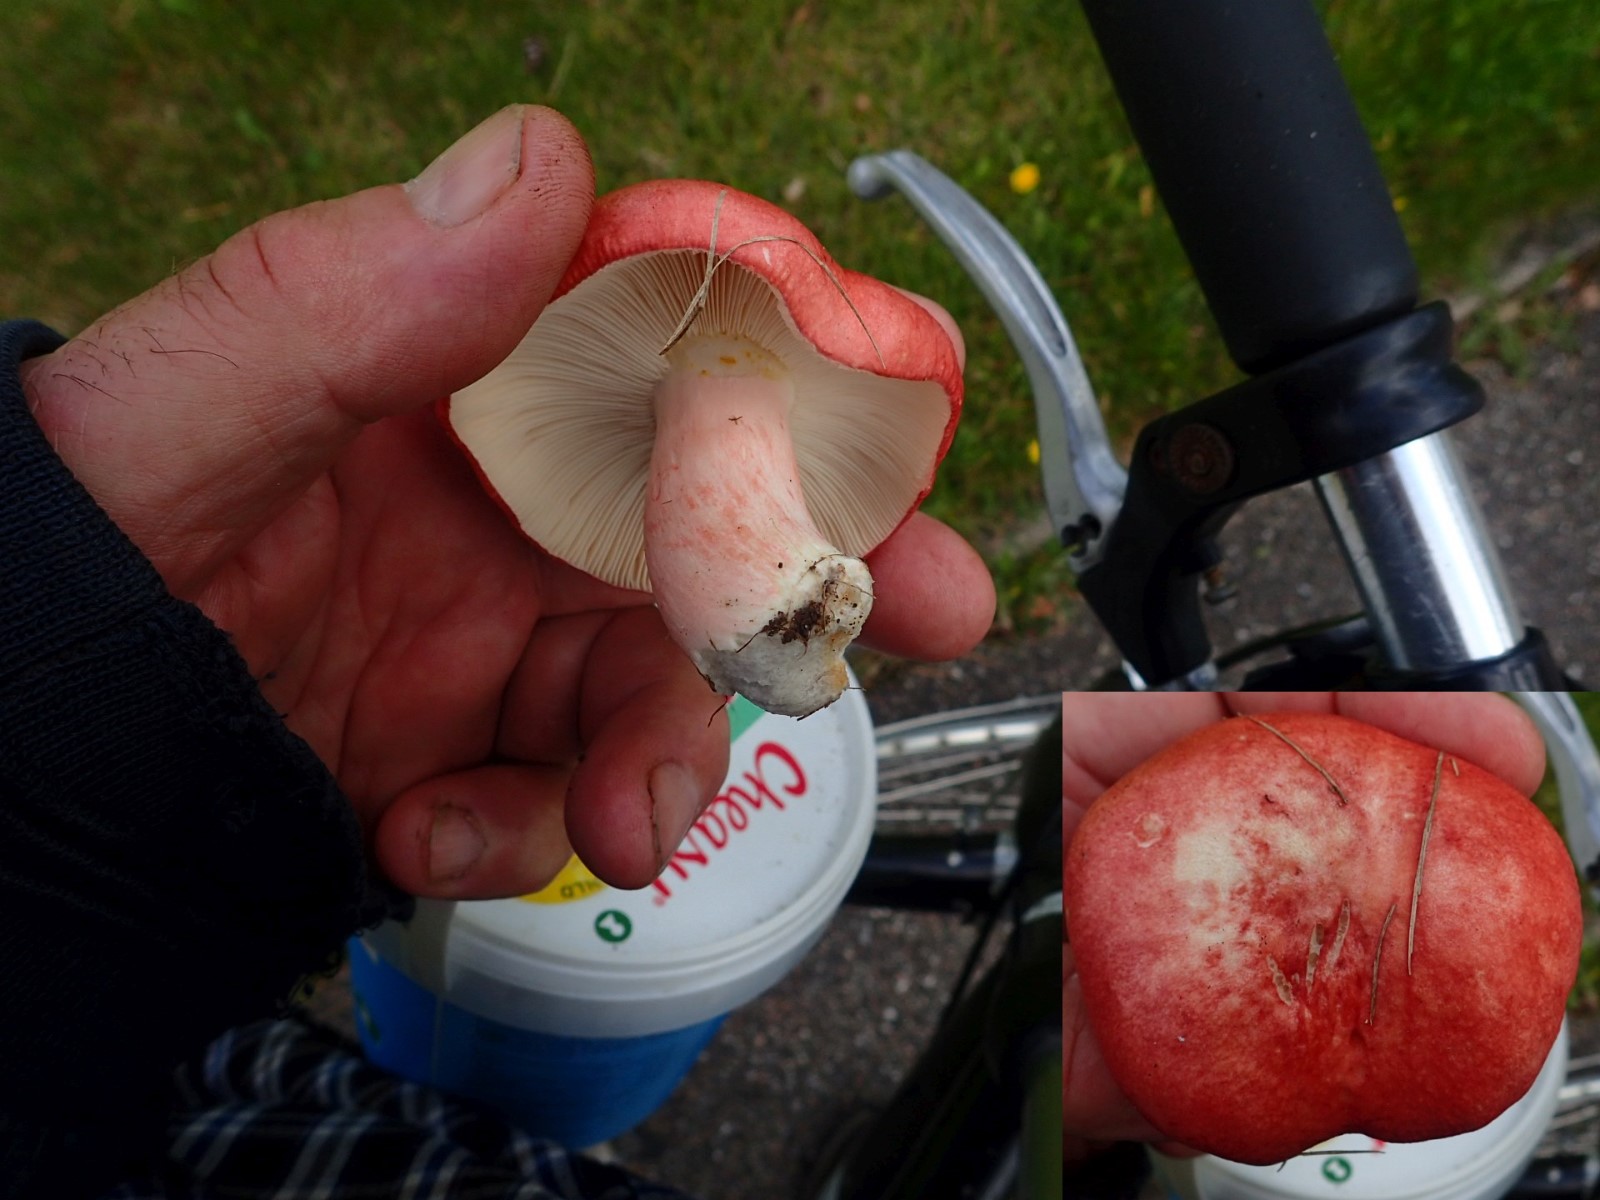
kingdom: Fungi
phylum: Basidiomycota
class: Agaricomycetes
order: Russulales
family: Russulaceae
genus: Russula
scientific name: Russula sanguinea
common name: blodrød skørhat
